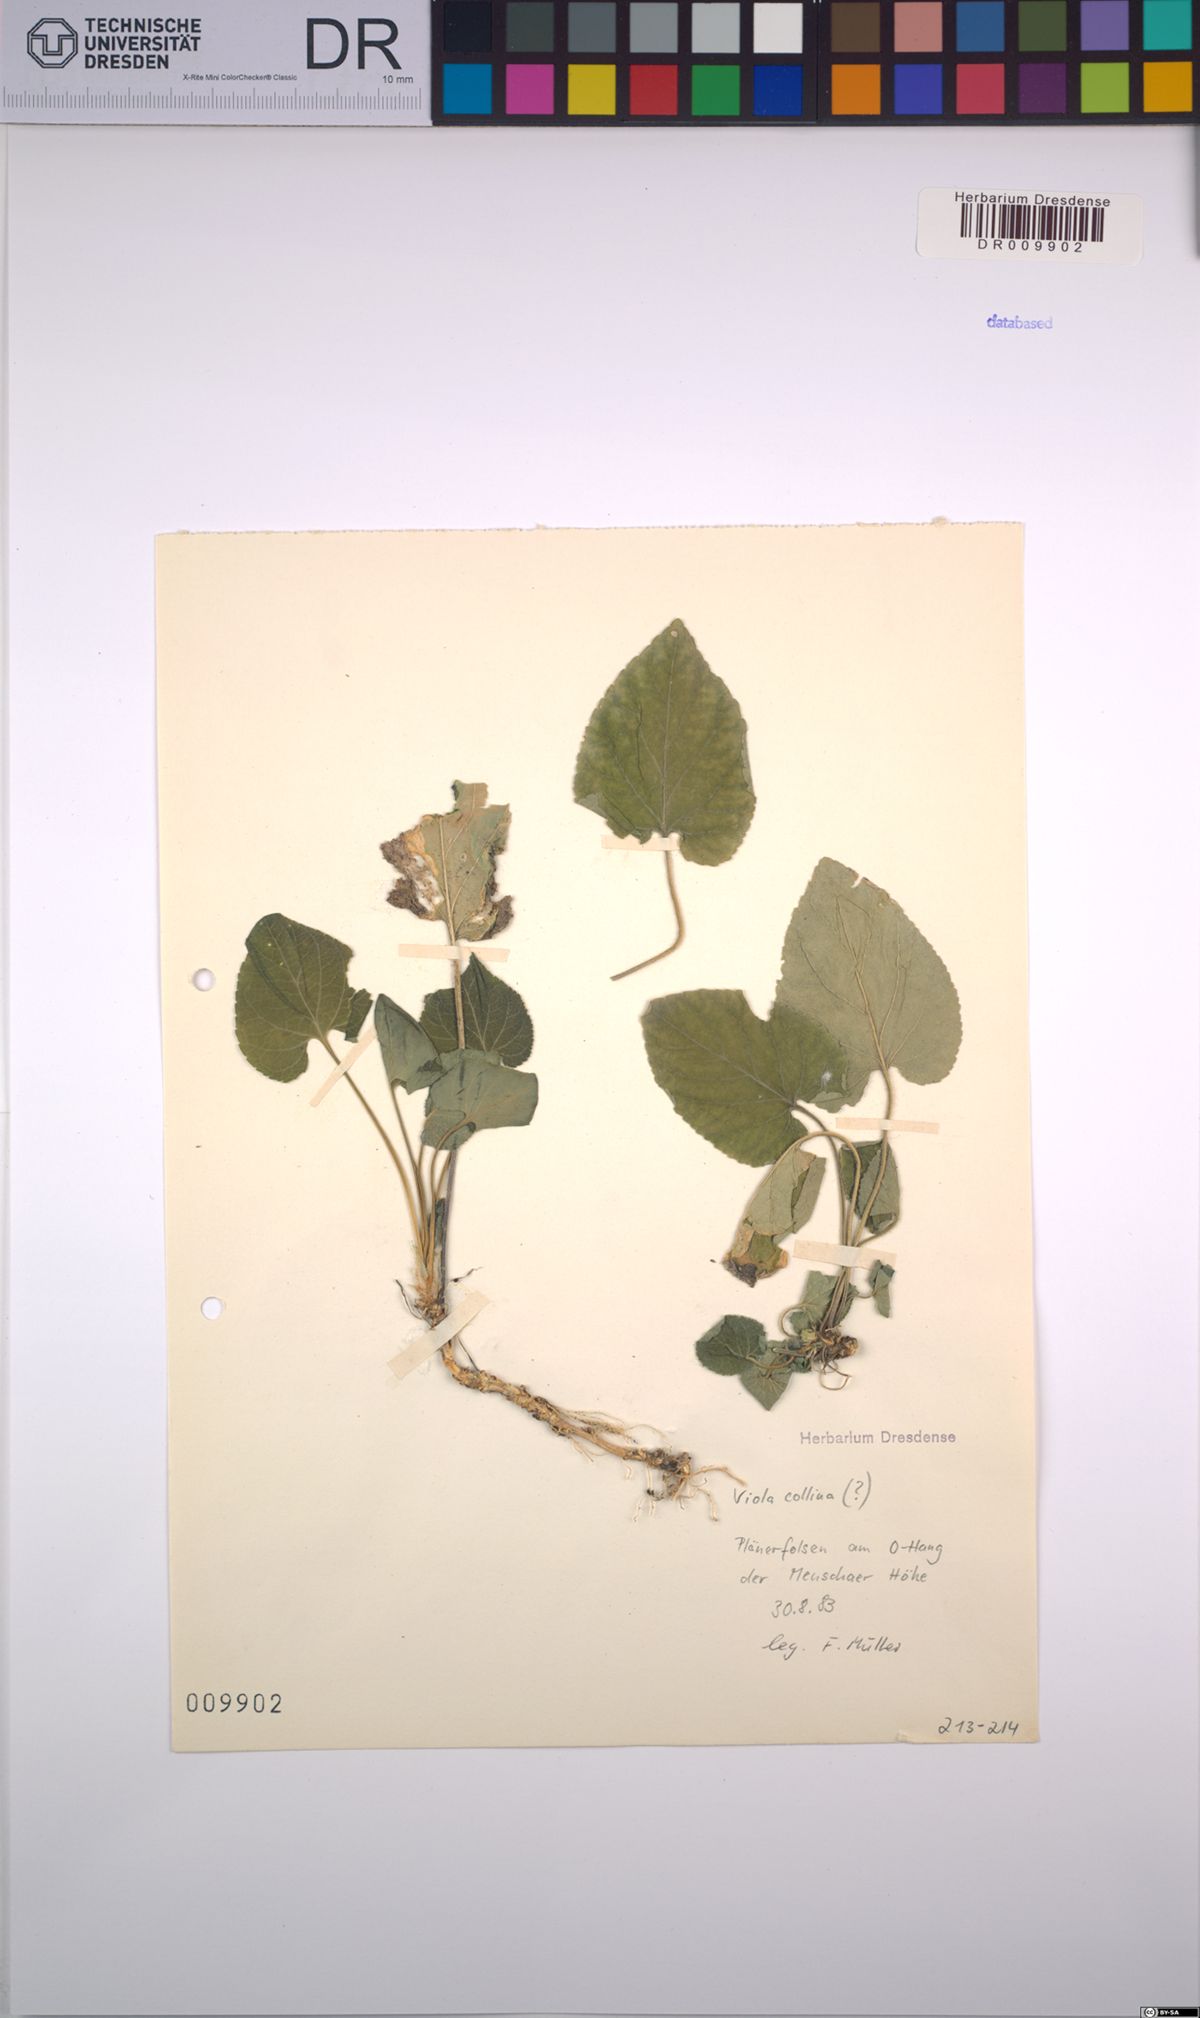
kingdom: Plantae
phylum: Tracheophyta
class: Magnoliopsida
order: Malpighiales
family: Violaceae
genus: Viola
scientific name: Viola hirta
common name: Hairy violet
